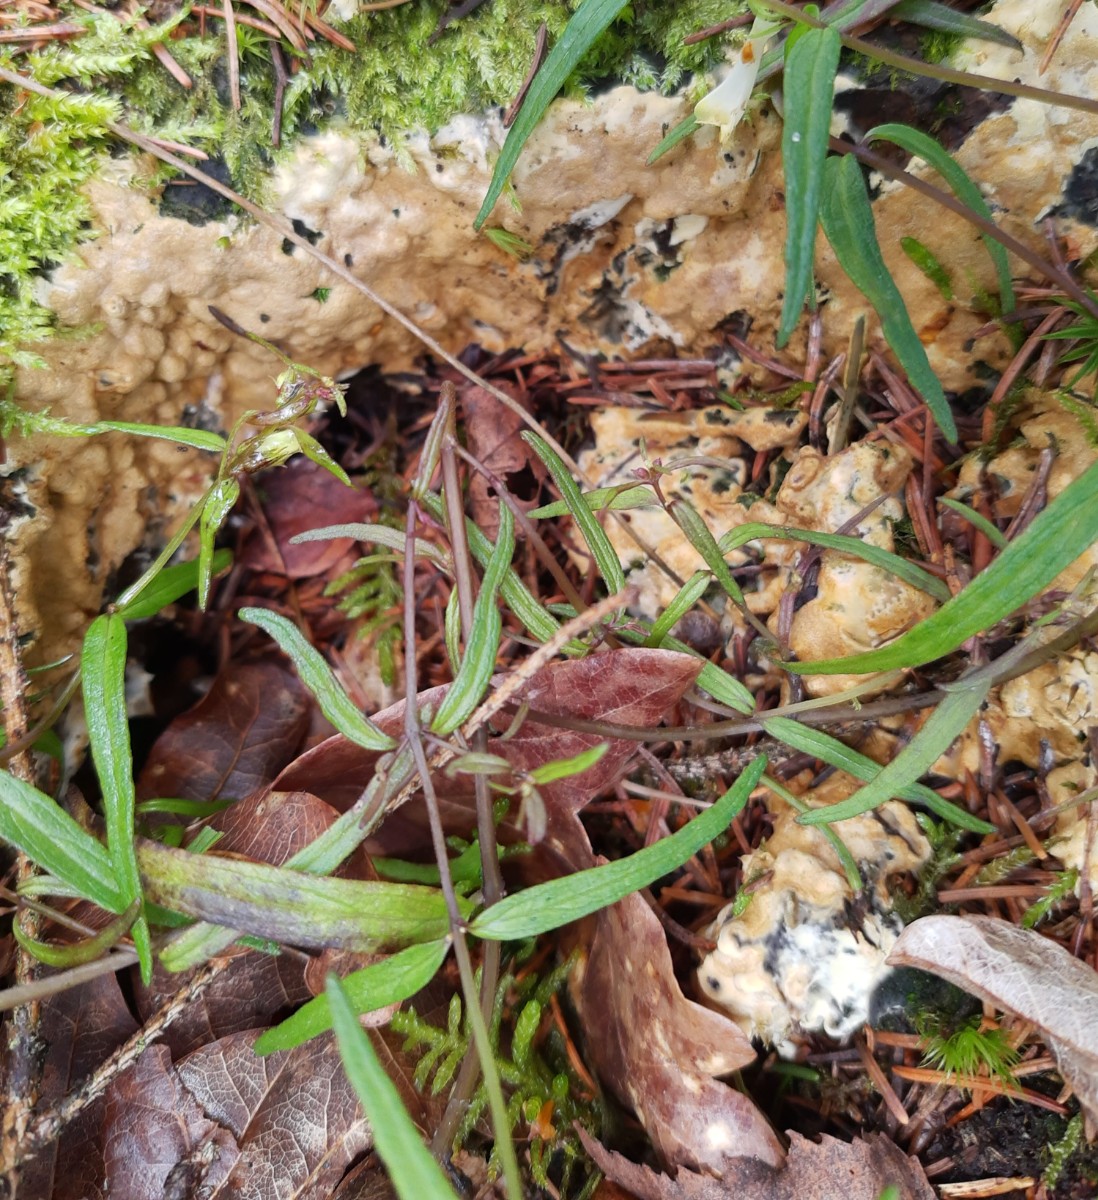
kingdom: Fungi
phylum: Ascomycota
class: Sordariomycetes
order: Hypocreales
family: Hypocreaceae
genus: Trichoderma
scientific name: Trichoderma citrinum
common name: udbredt kødkerne
